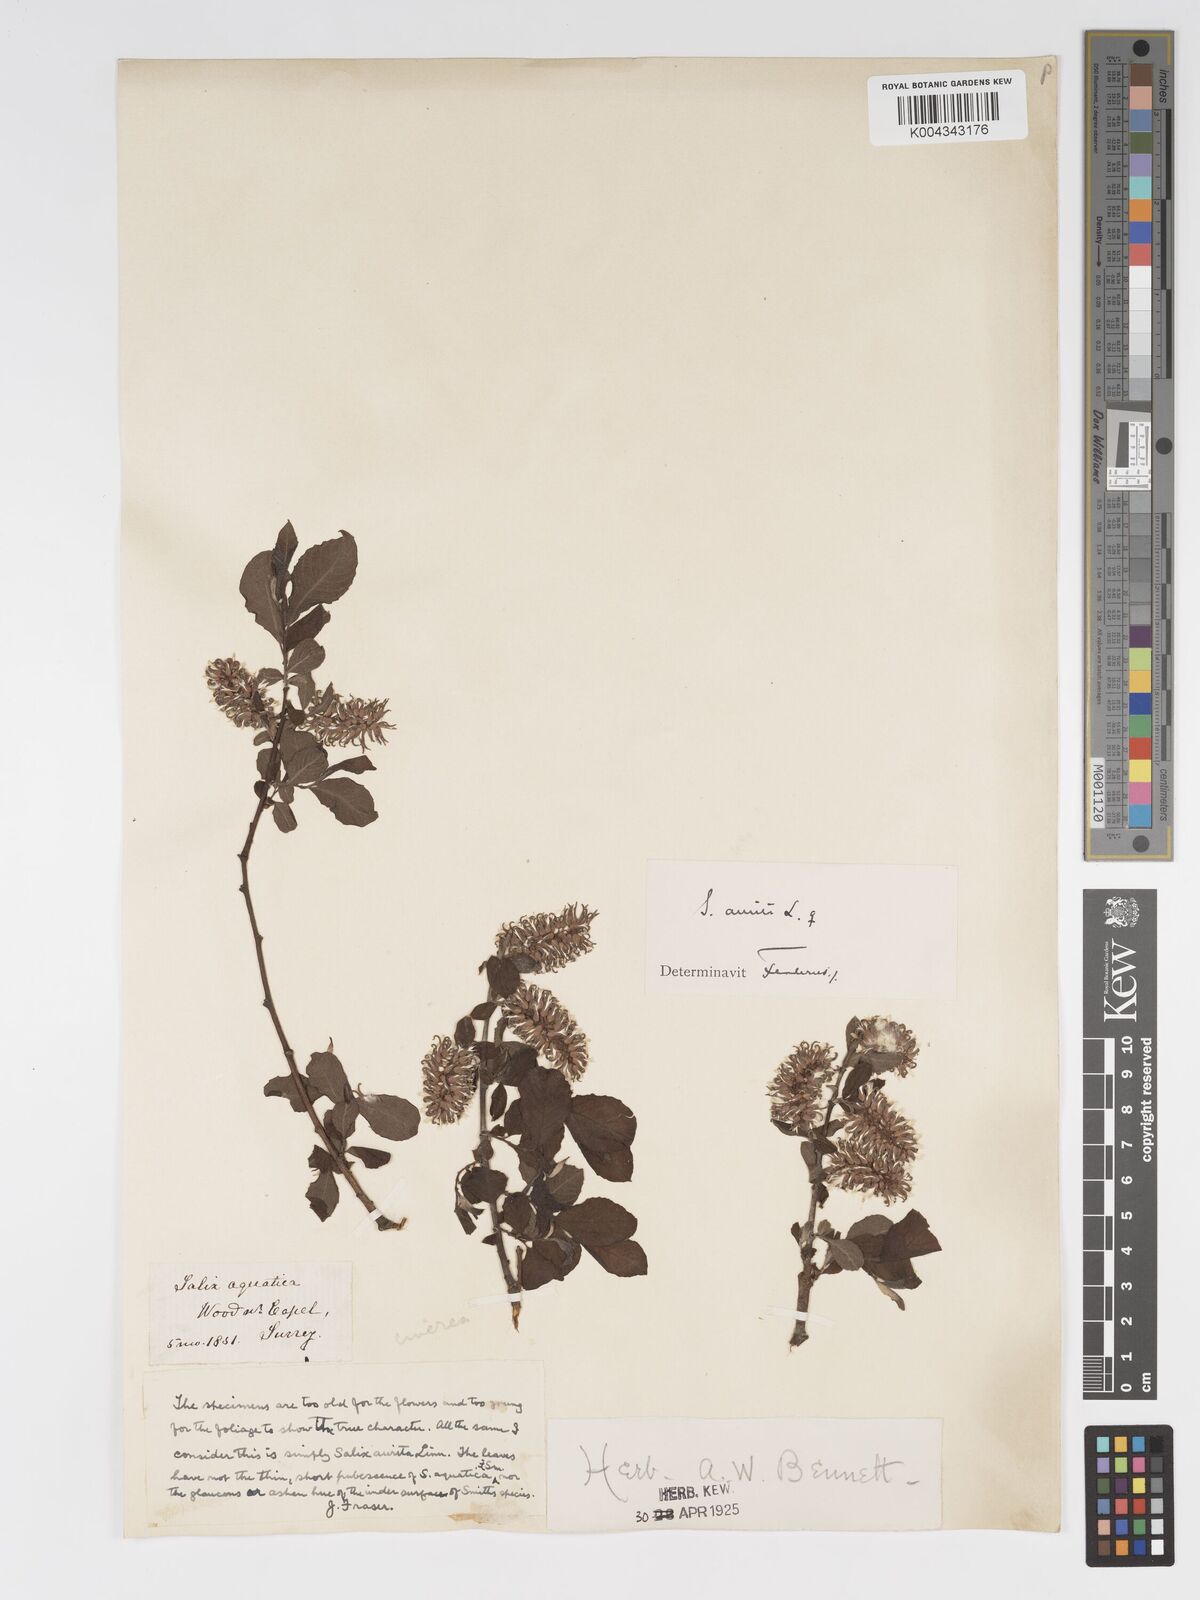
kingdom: Plantae
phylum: Tracheophyta
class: Magnoliopsida
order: Malpighiales
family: Salicaceae
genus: Salix
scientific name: Salix aurita
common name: Eared willow
